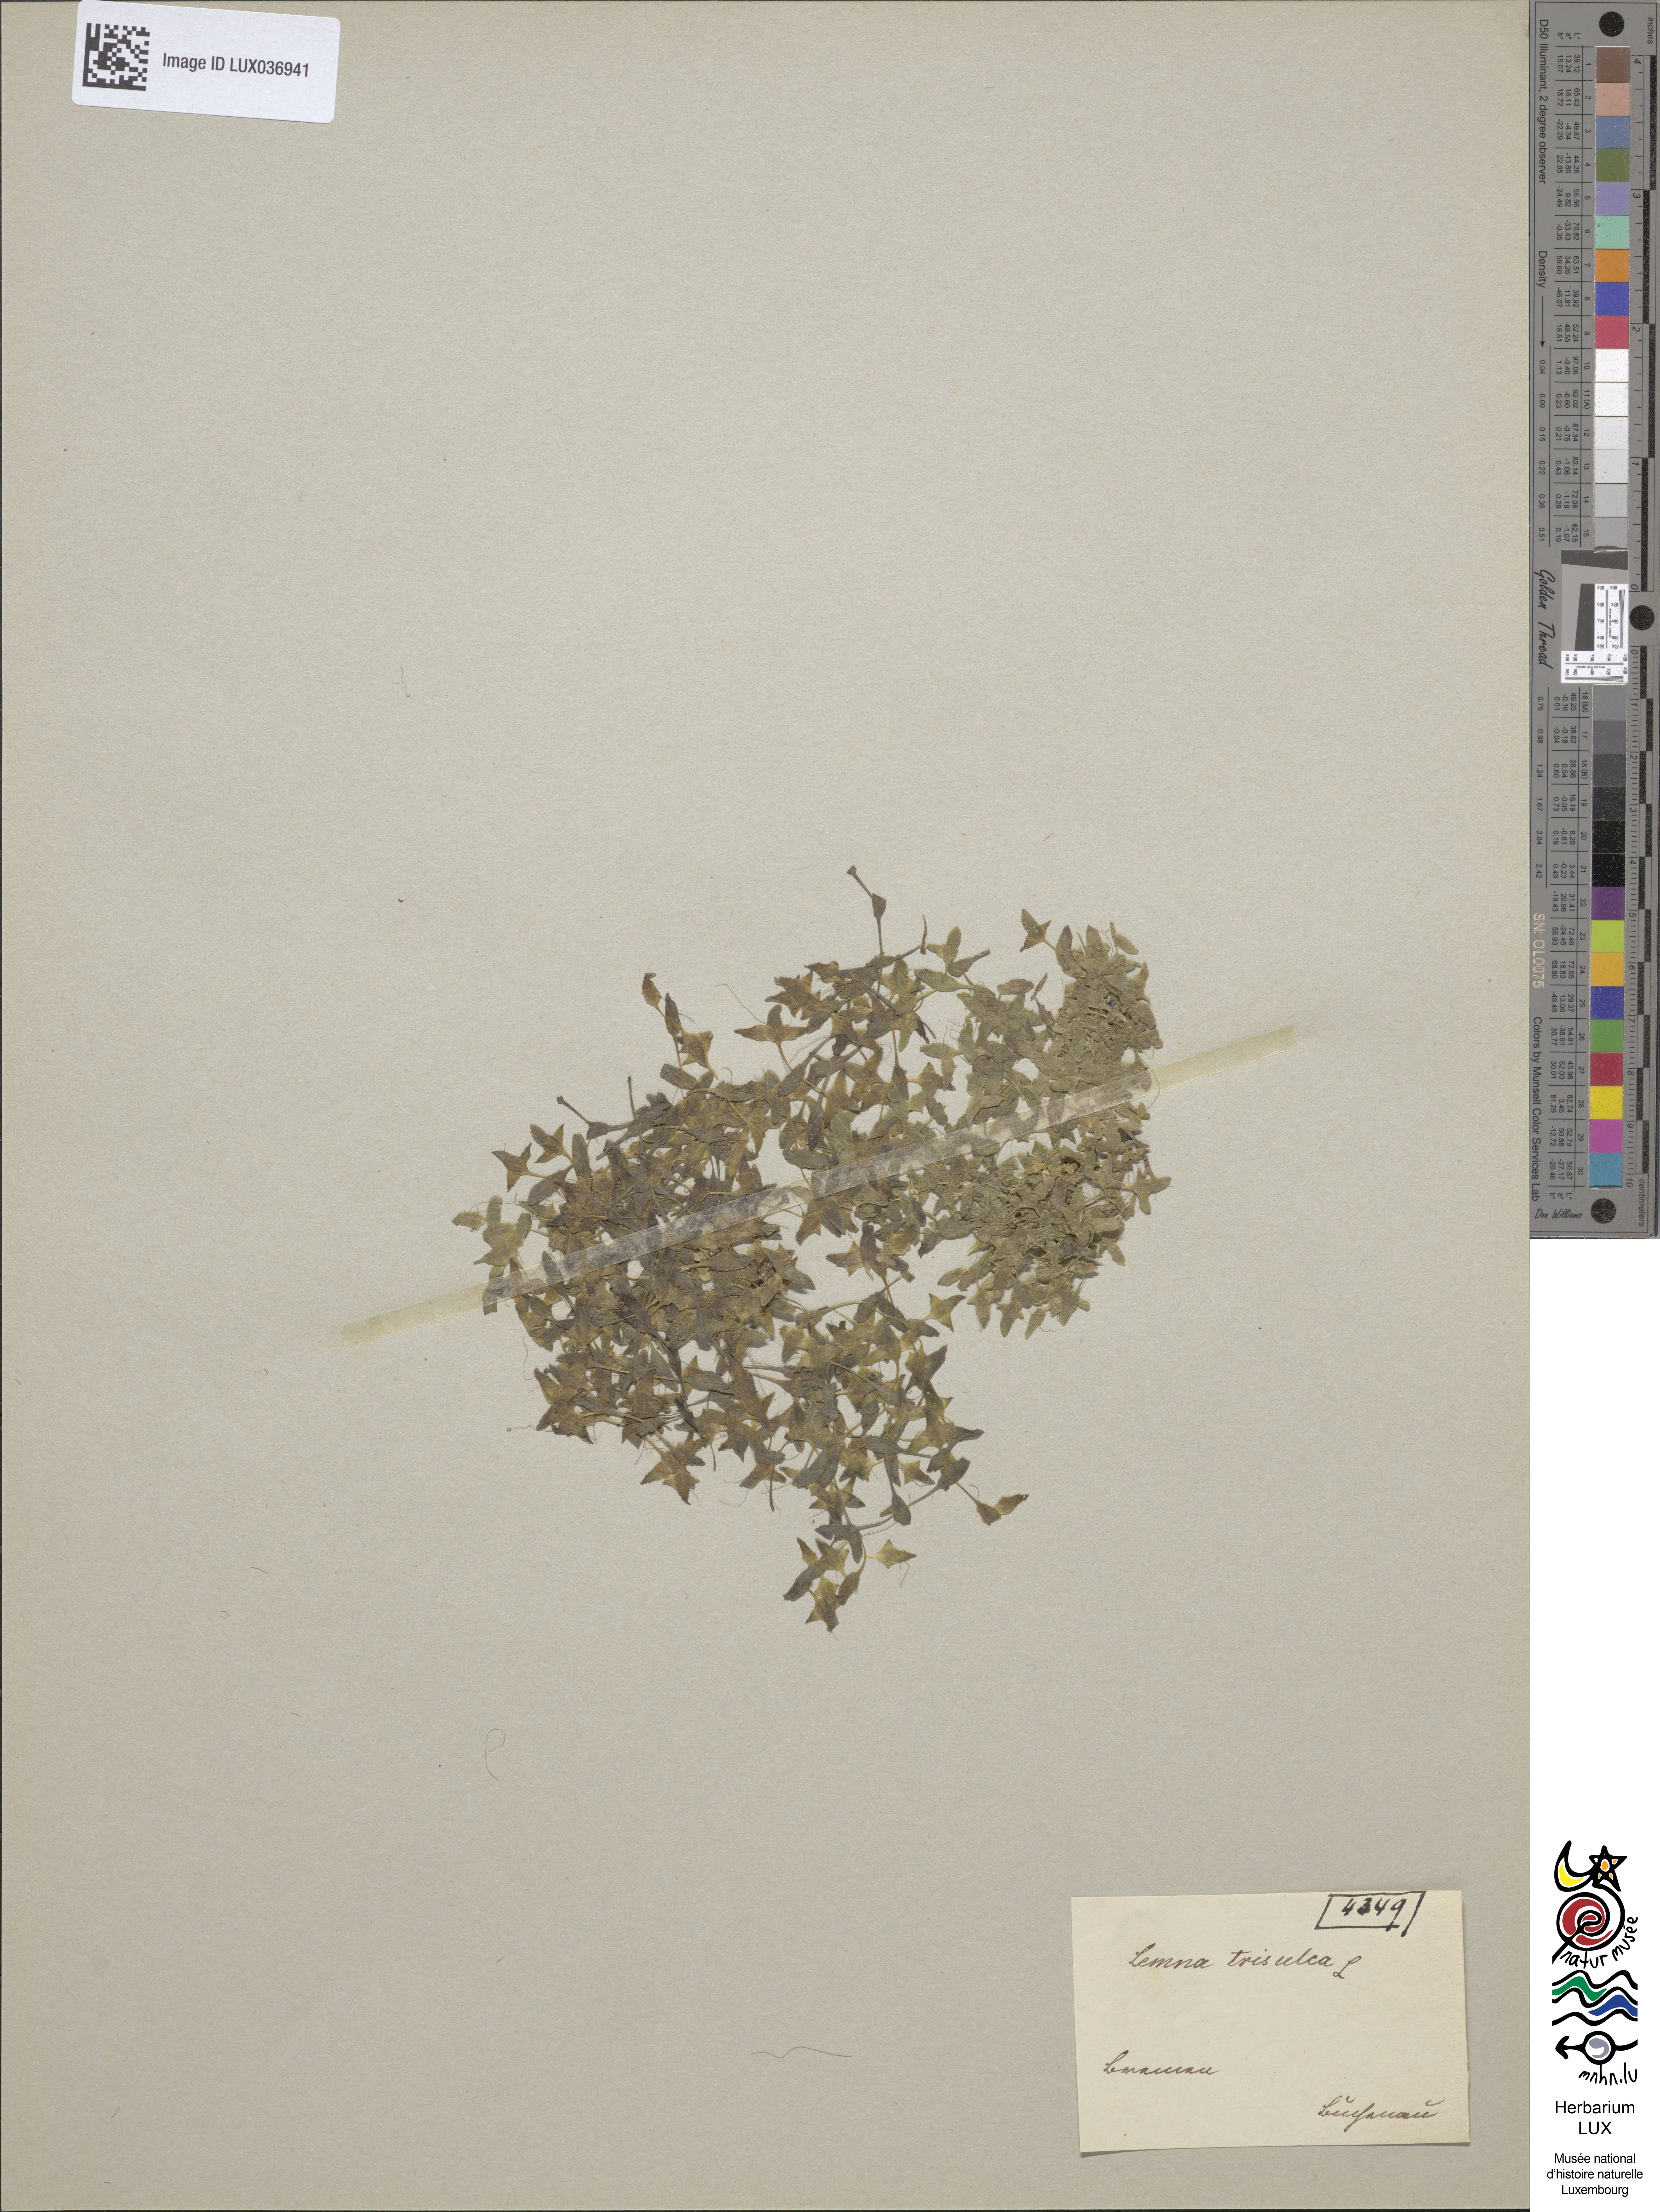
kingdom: Plantae
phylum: Tracheophyta
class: Liliopsida
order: Alismatales
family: Araceae
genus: Lemna
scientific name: Lemna trisulca
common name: Ivy-leaved duckweed
